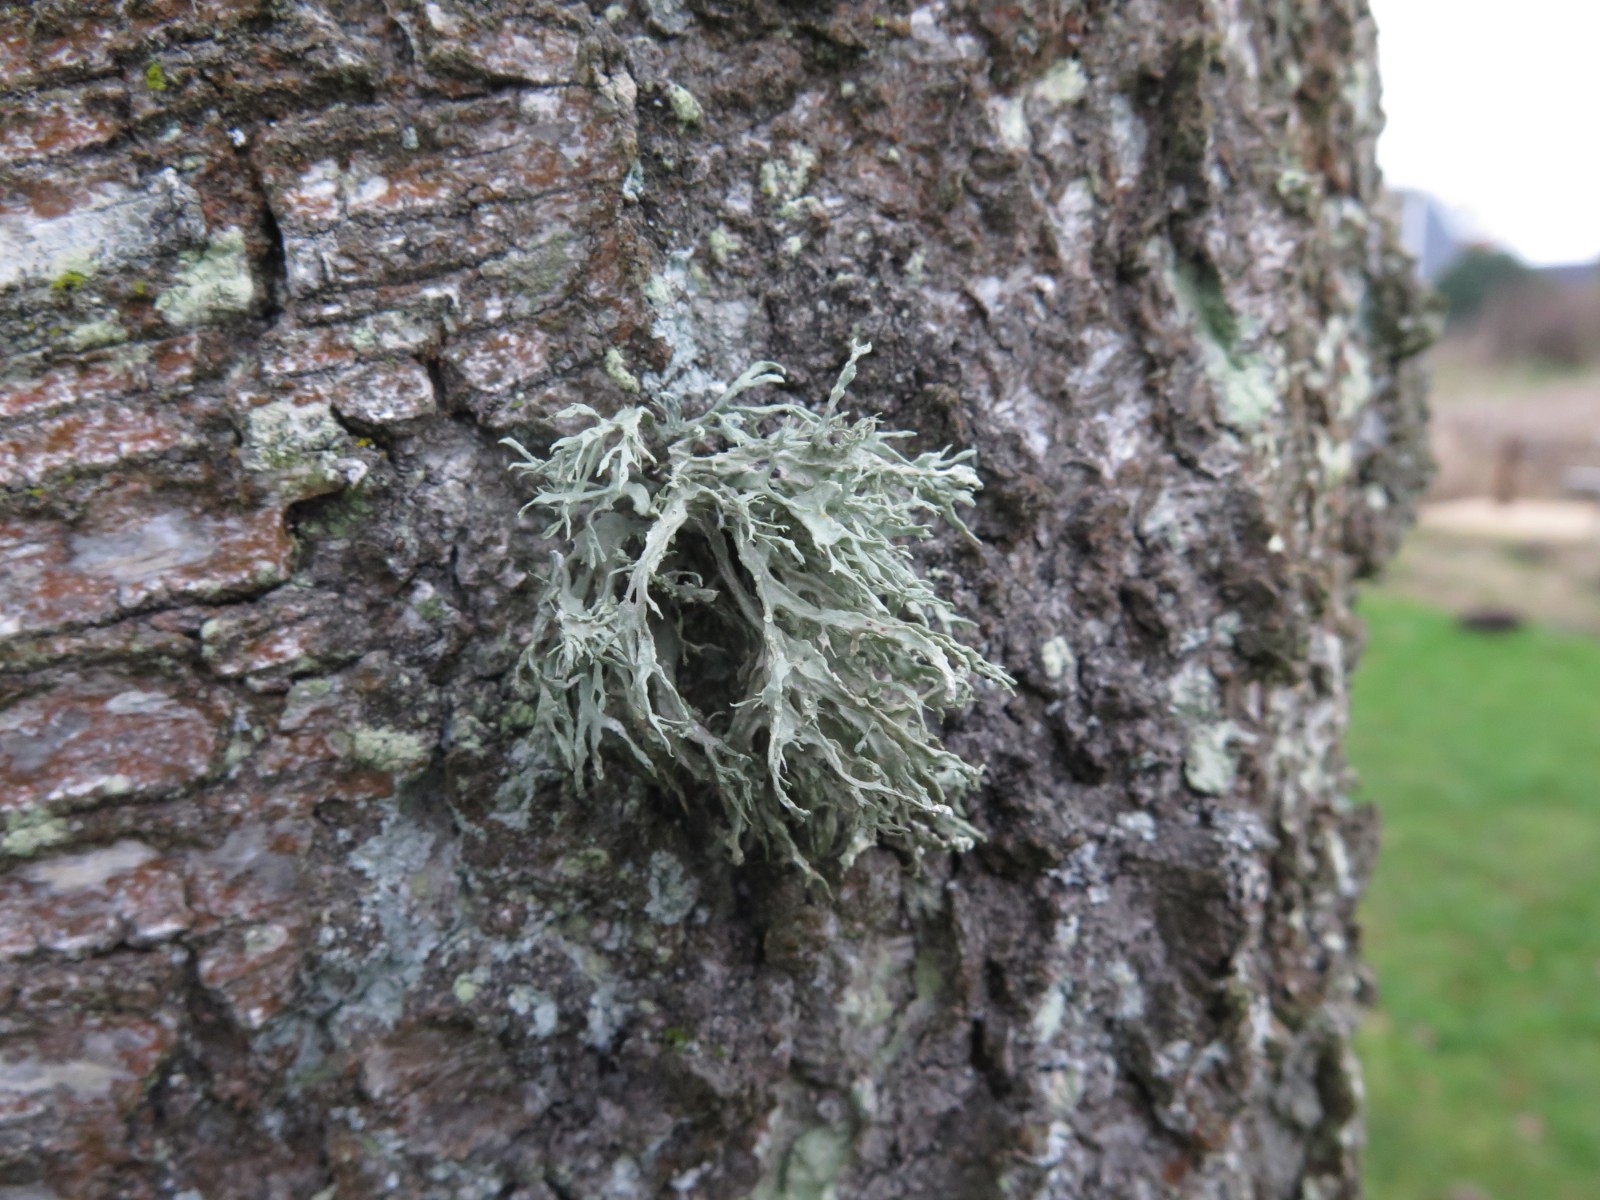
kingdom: Fungi
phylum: Ascomycota
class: Lecanoromycetes
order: Lecanorales
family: Ramalinaceae
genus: Ramalina
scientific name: Ramalina farinacea
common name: melet grenlav
